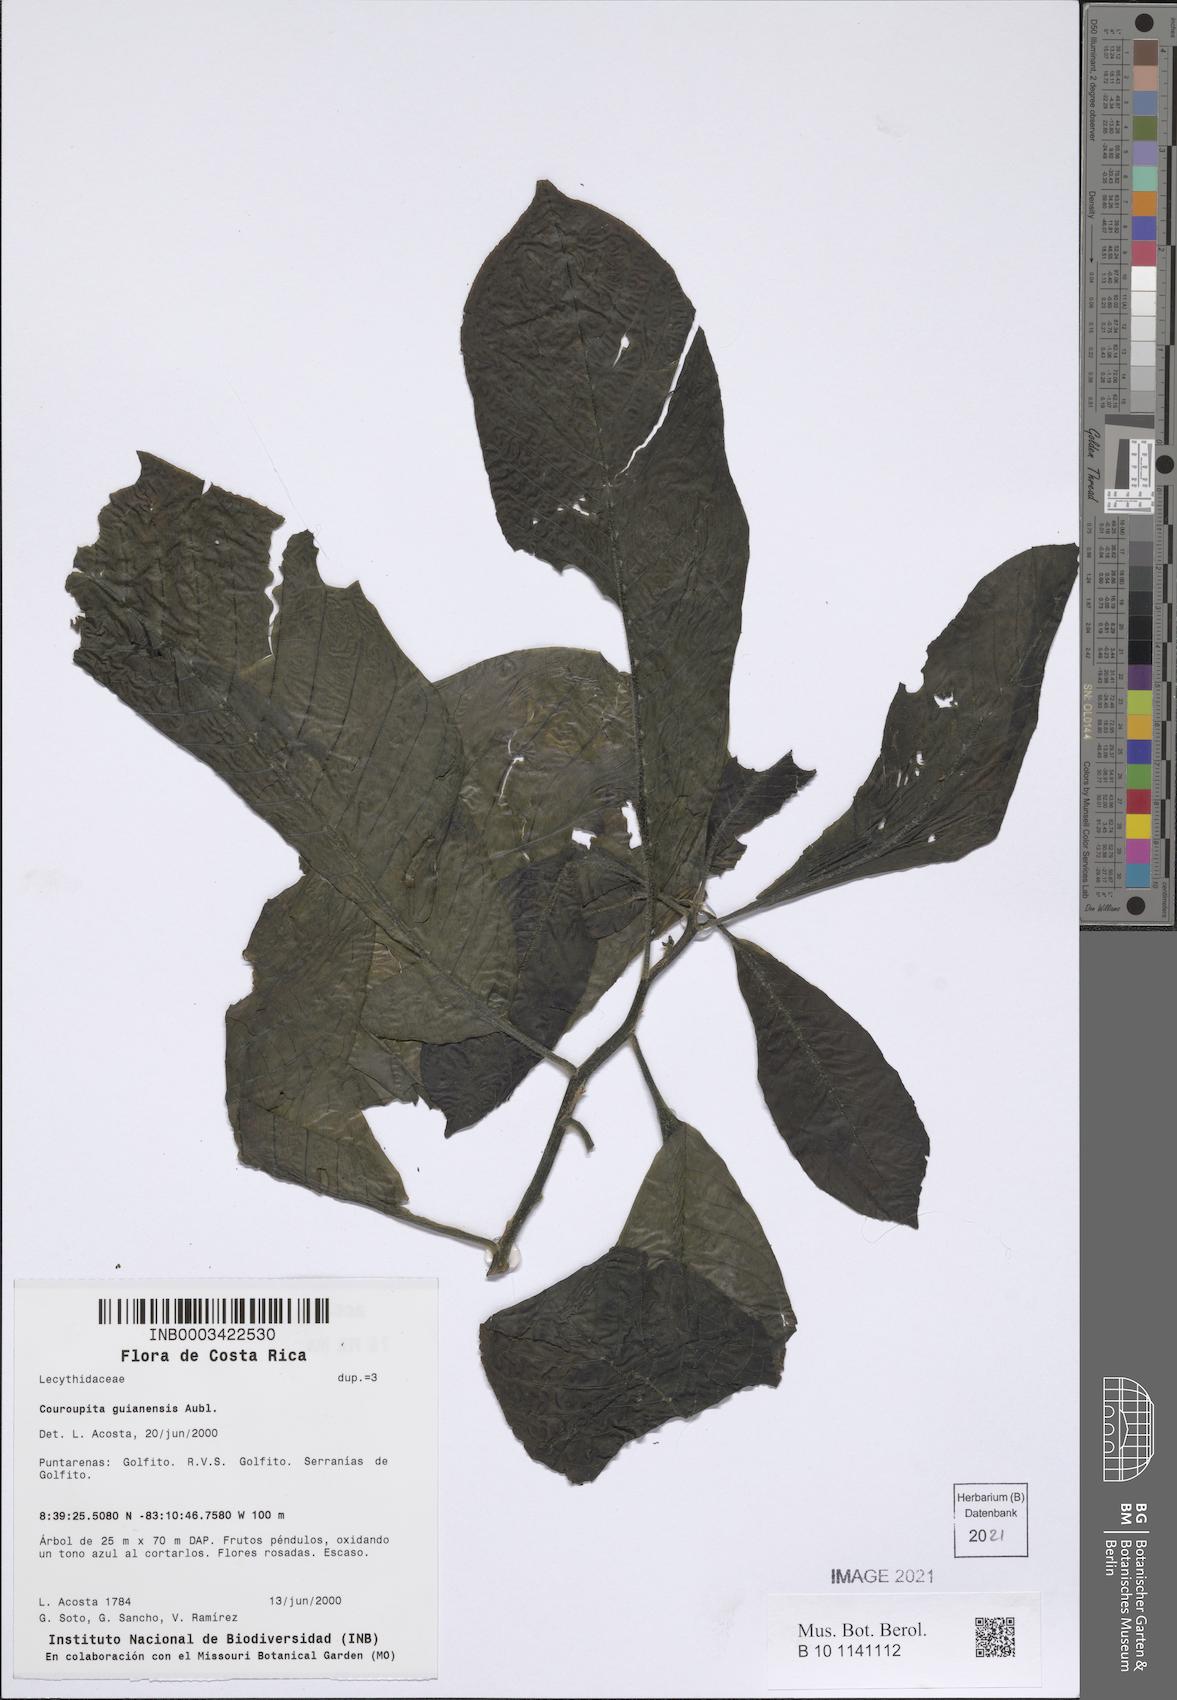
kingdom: Plantae
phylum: Tracheophyta
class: Magnoliopsida
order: Ericales
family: Lecythidaceae
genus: Couroupita
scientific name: Couroupita guianensis
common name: Cannonball tree
